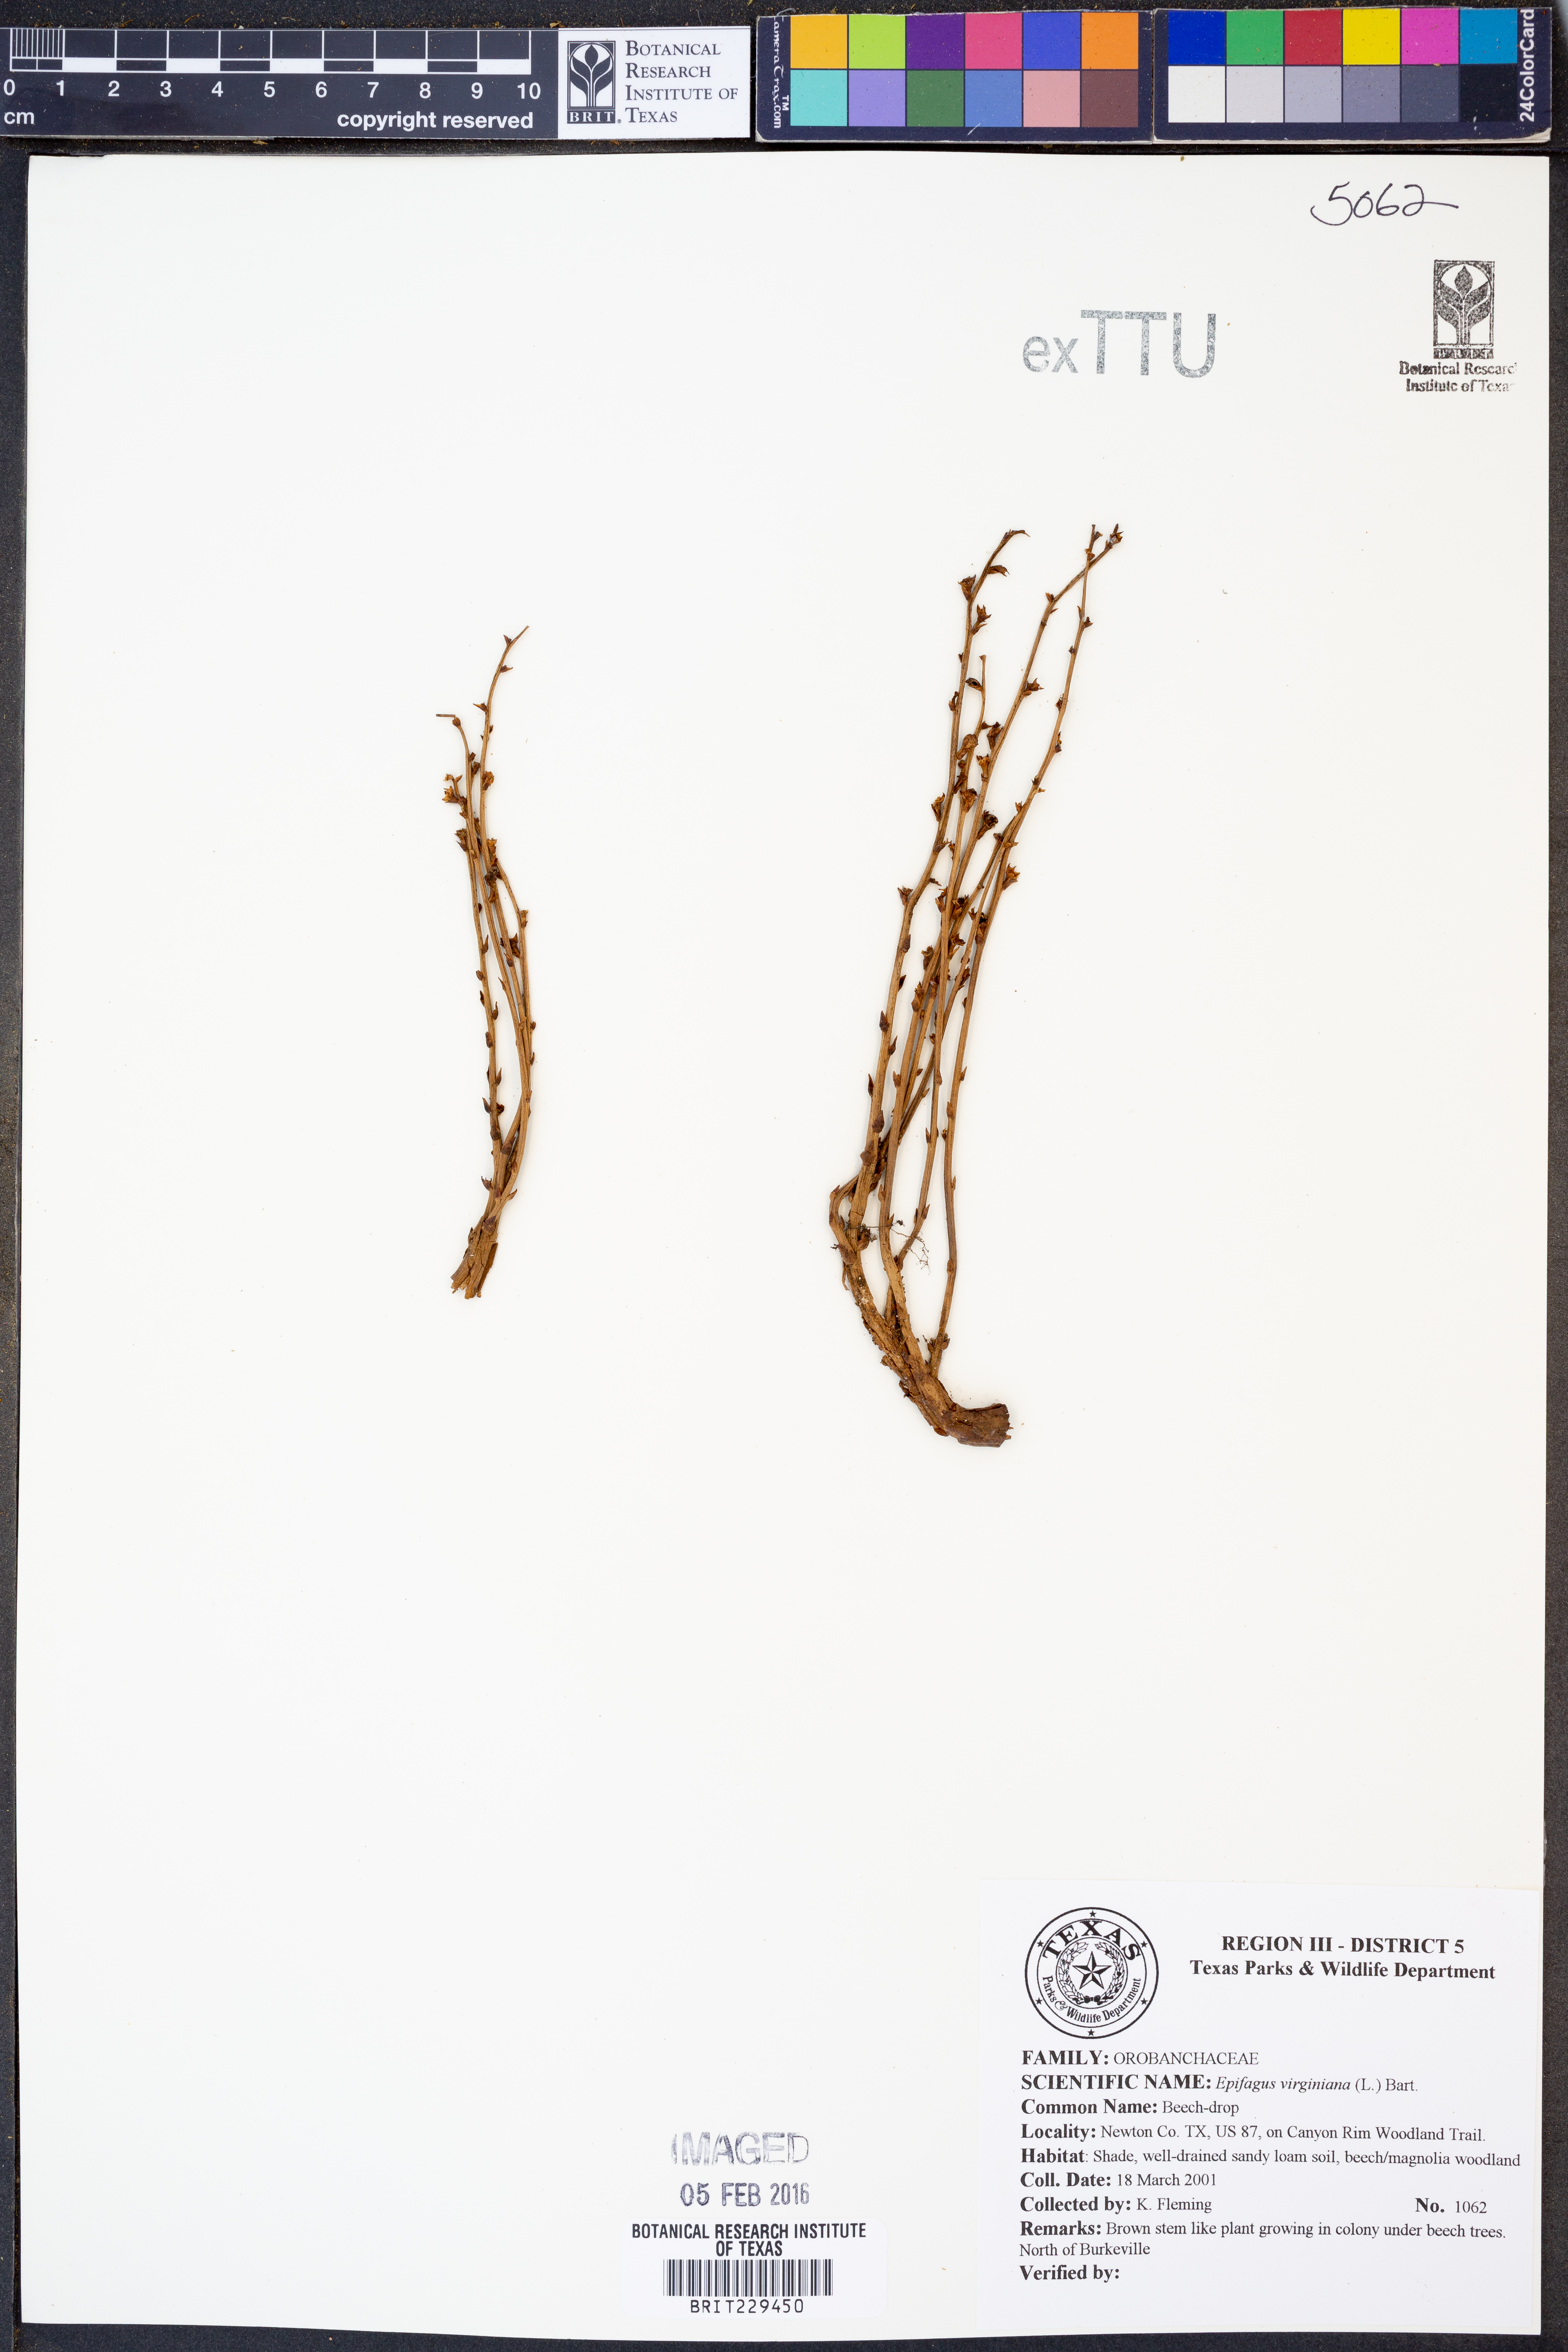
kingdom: Plantae
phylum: Tracheophyta
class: Magnoliopsida
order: Lamiales
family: Orobanchaceae
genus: Epifagus
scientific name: Epifagus virginiana
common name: Beechdrops
